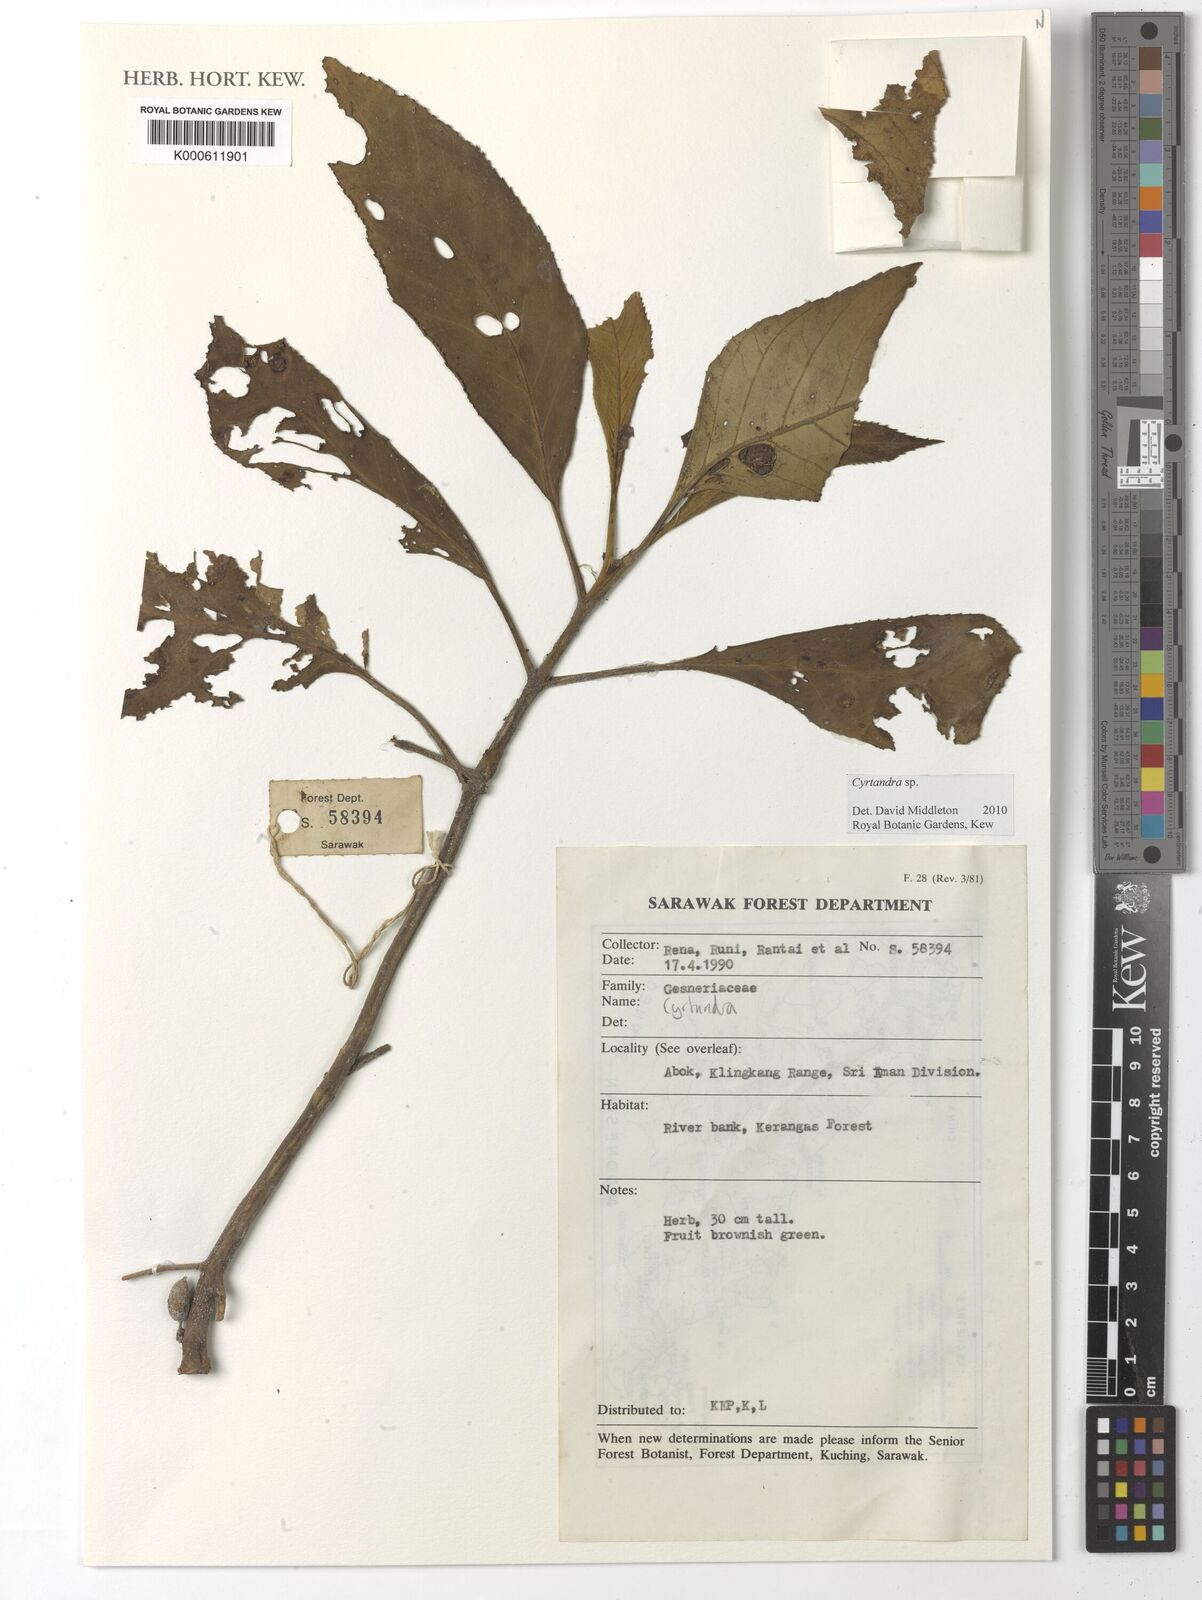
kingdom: Plantae
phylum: Tracheophyta
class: Magnoliopsida
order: Lamiales
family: Gesneriaceae
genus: Cyrtandra
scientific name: Cyrtandra
